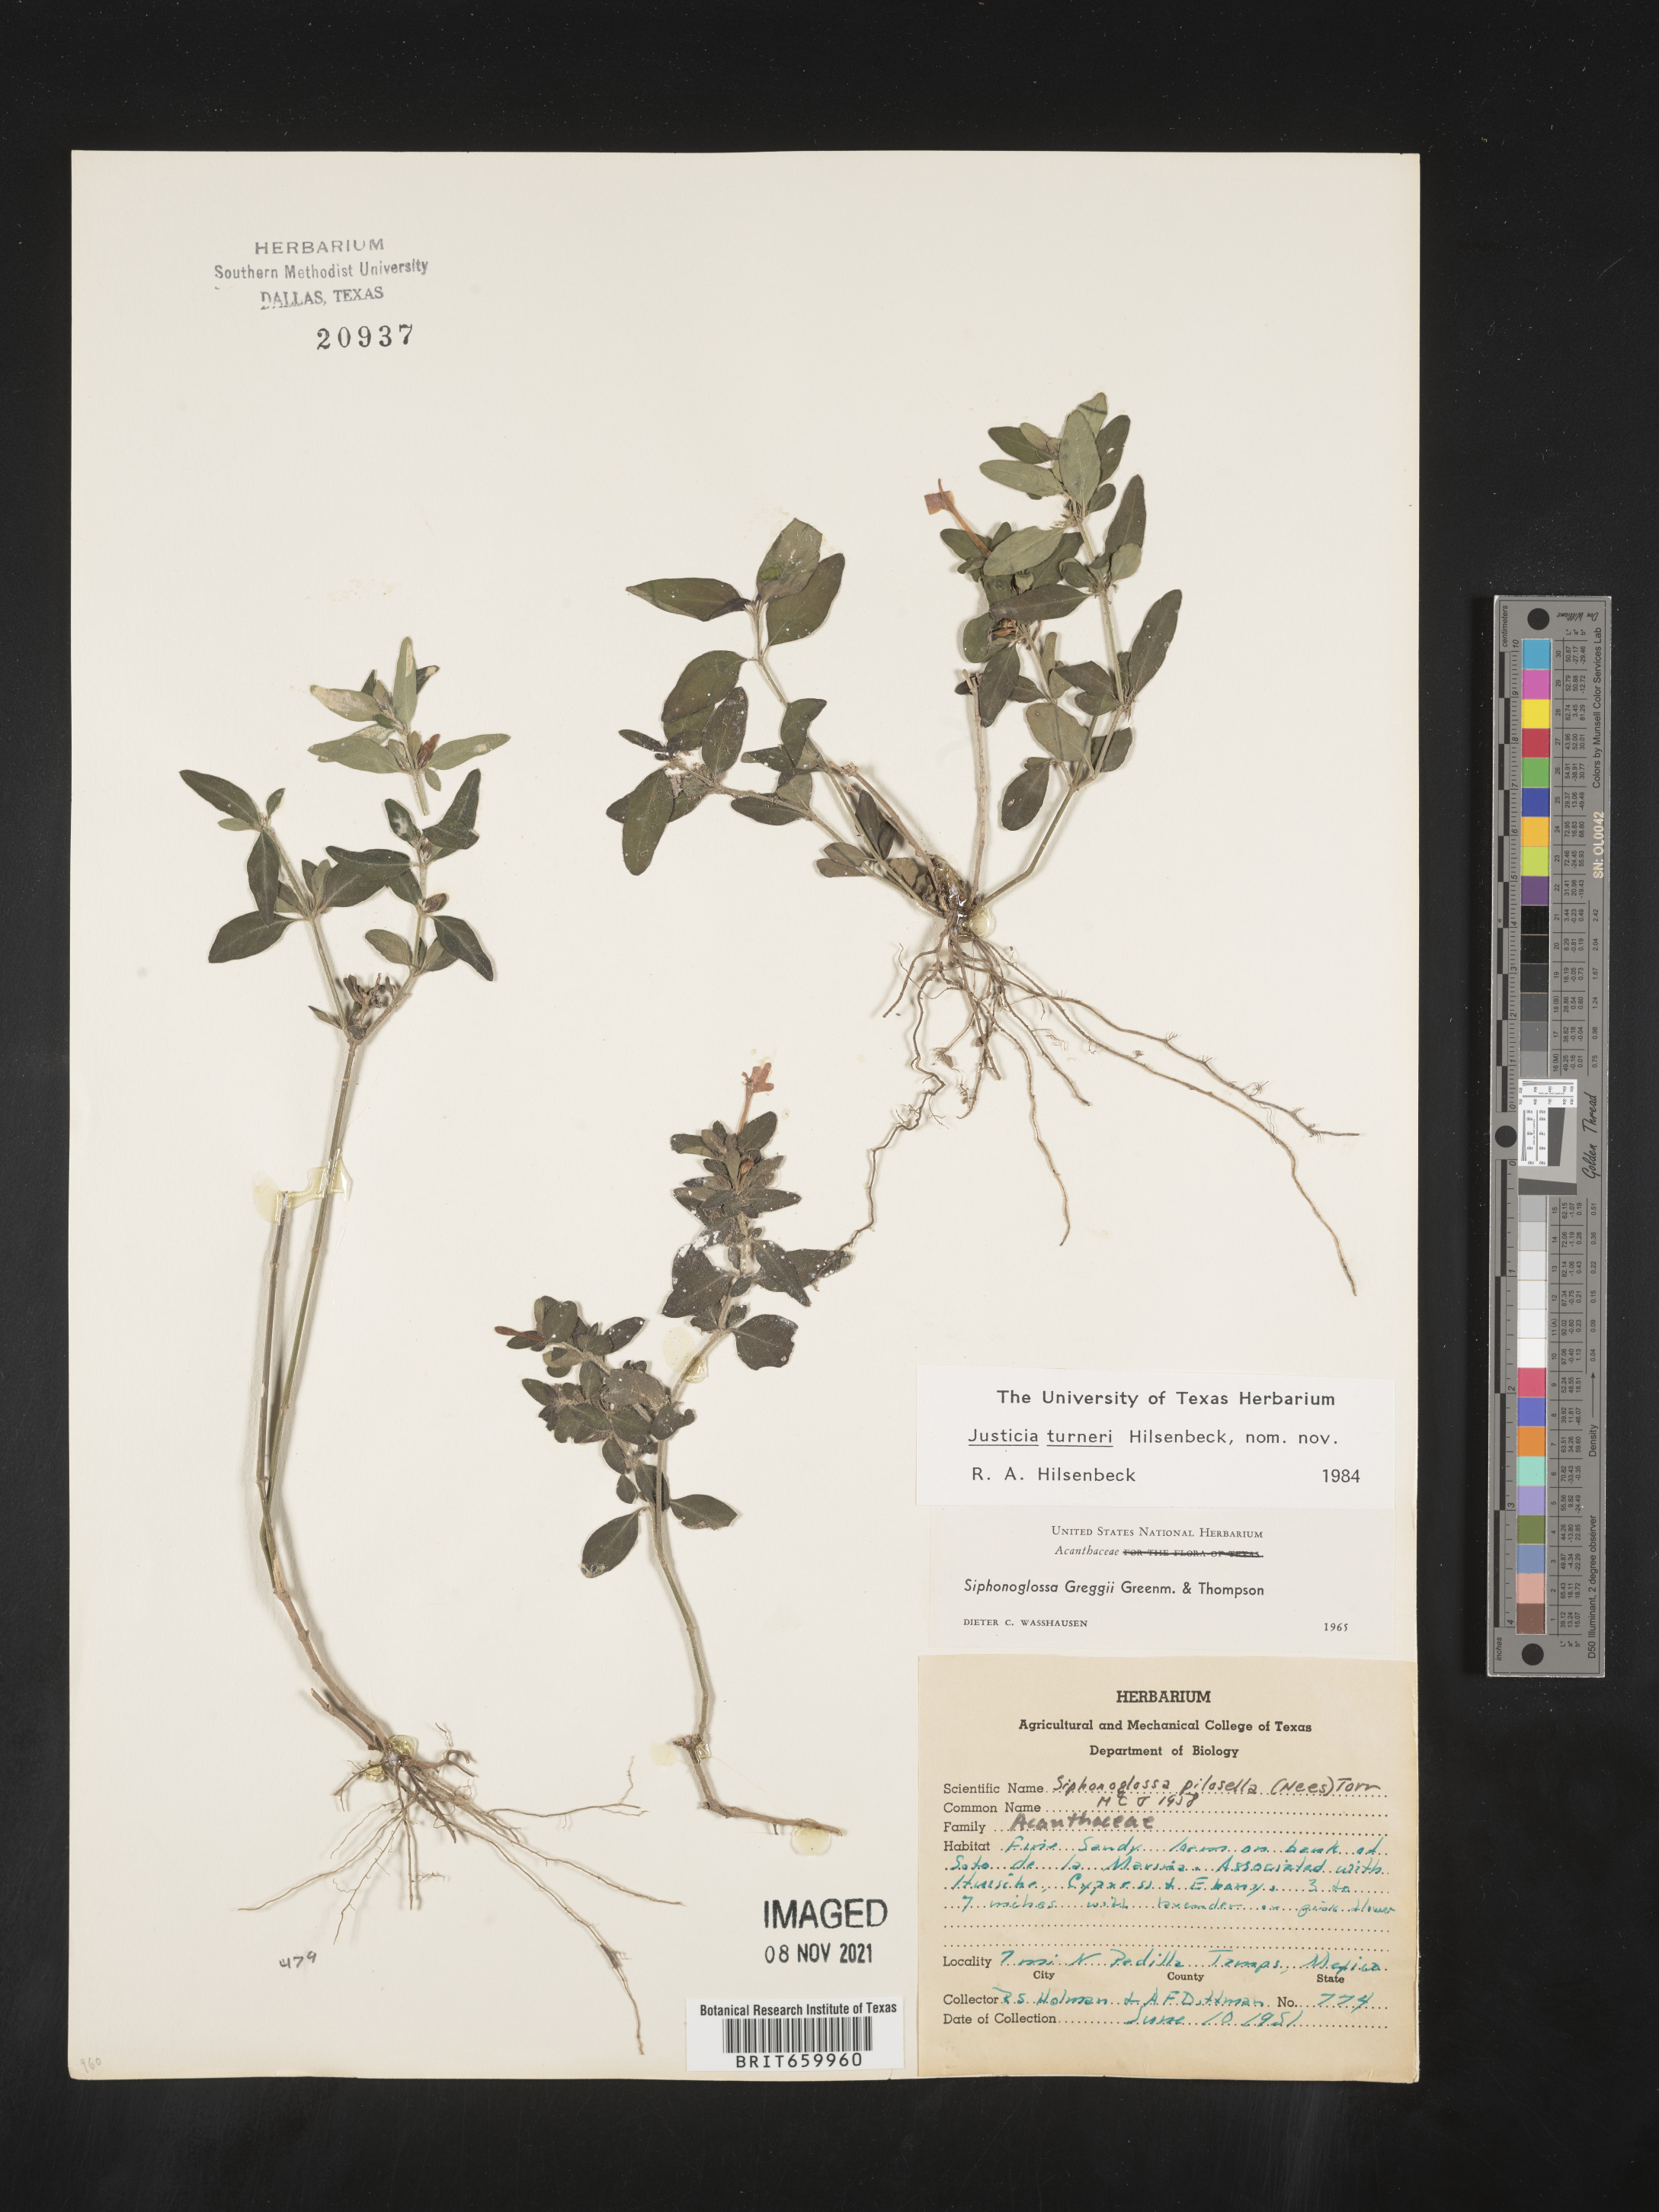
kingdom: Plantae
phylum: Tracheophyta
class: Magnoliopsida
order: Lamiales
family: Acanthaceae
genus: Justicia
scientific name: Justicia
